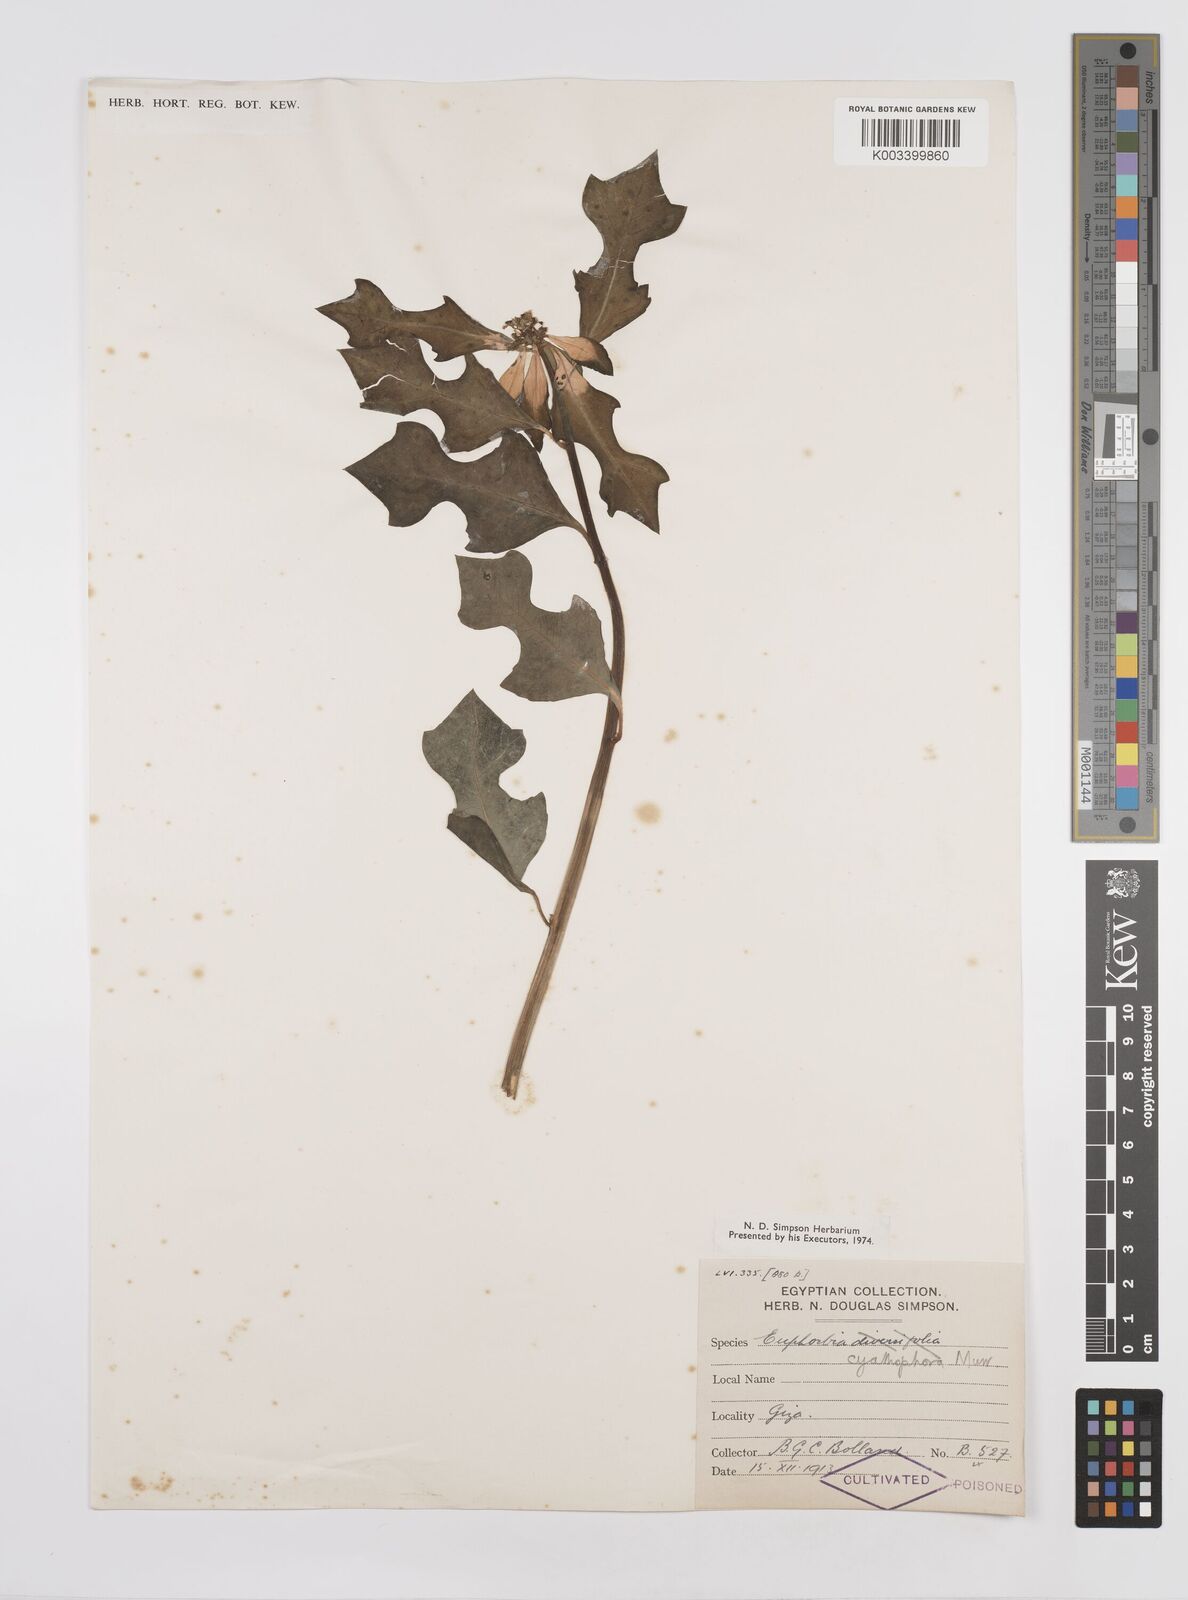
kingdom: Plantae
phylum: Tracheophyta
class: Magnoliopsida
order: Malpighiales
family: Euphorbiaceae
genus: Euphorbia
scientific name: Euphorbia heterophylla
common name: Mexican fireplant
